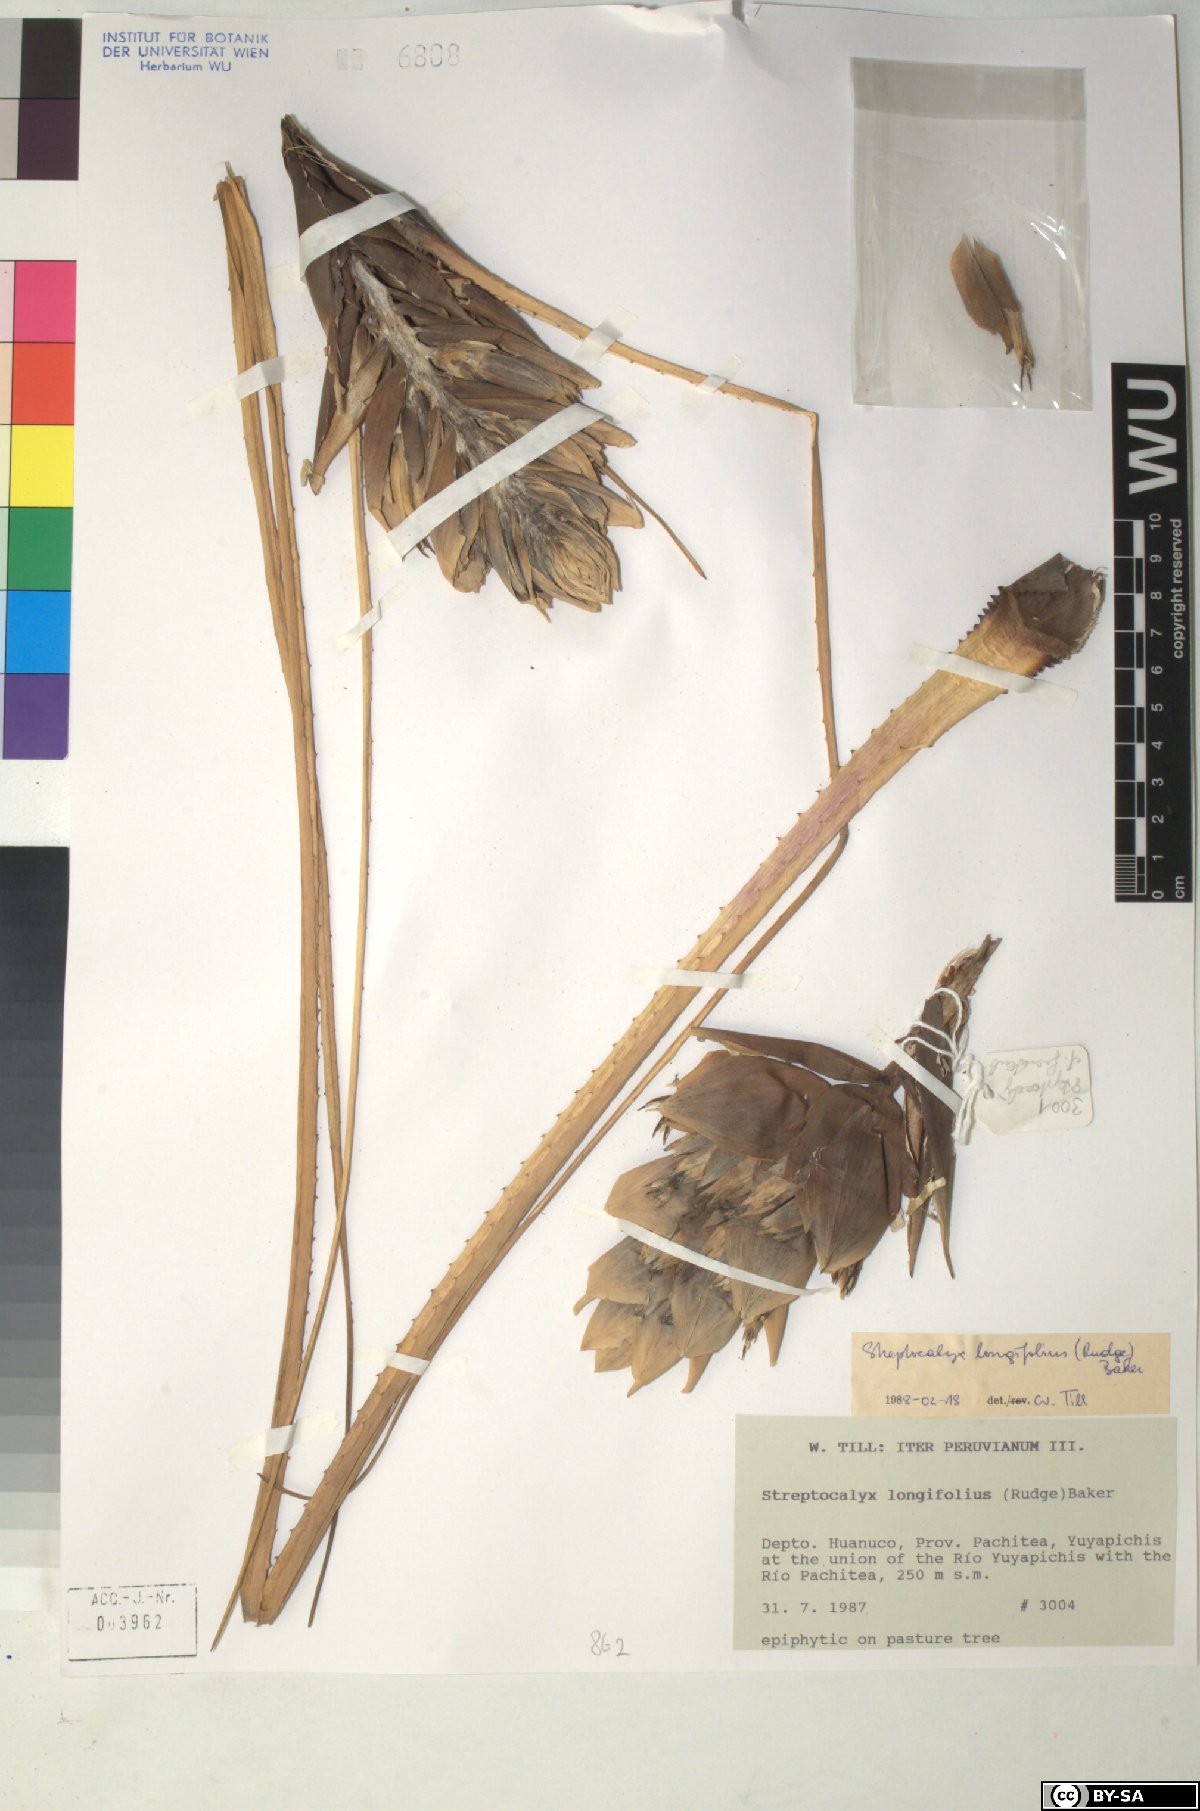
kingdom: Plantae
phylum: Tracheophyta
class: Liliopsida
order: Poales
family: Bromeliaceae
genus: Aechmea
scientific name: Aechmea longifolia
